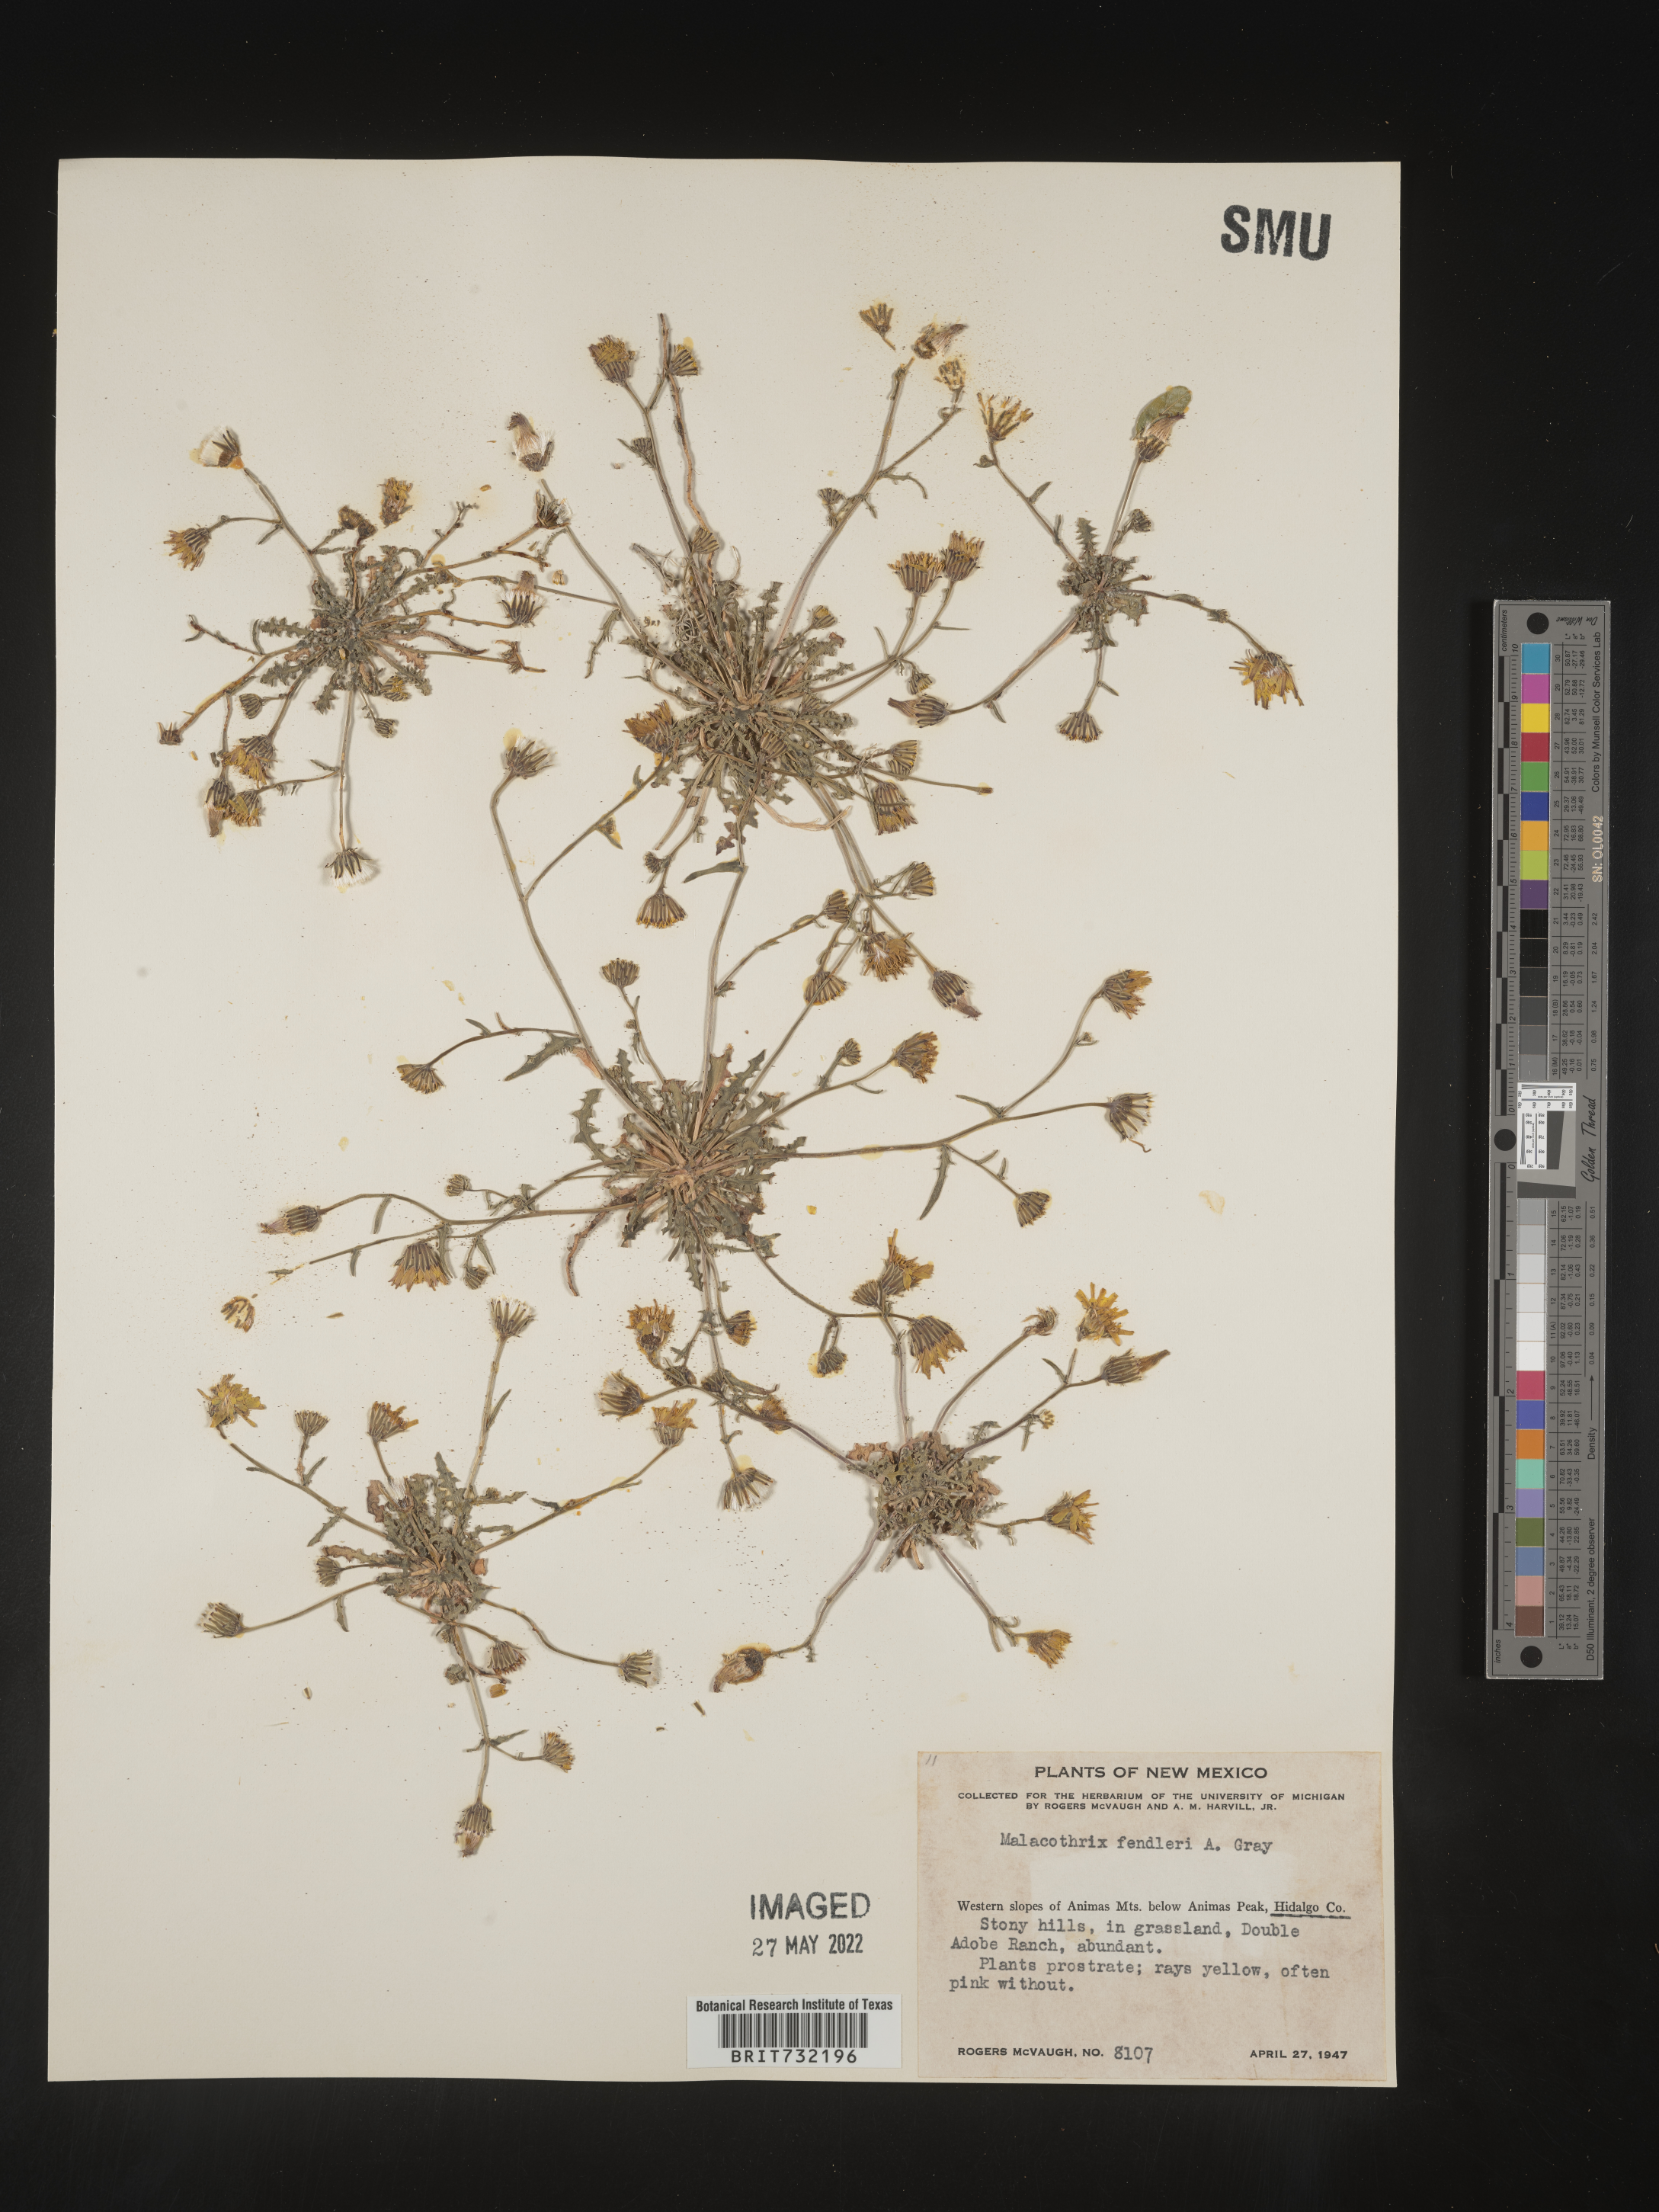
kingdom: Plantae
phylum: Tracheophyta
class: Magnoliopsida
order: Asterales
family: Asteraceae
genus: Malacothrix
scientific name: Malacothrix
